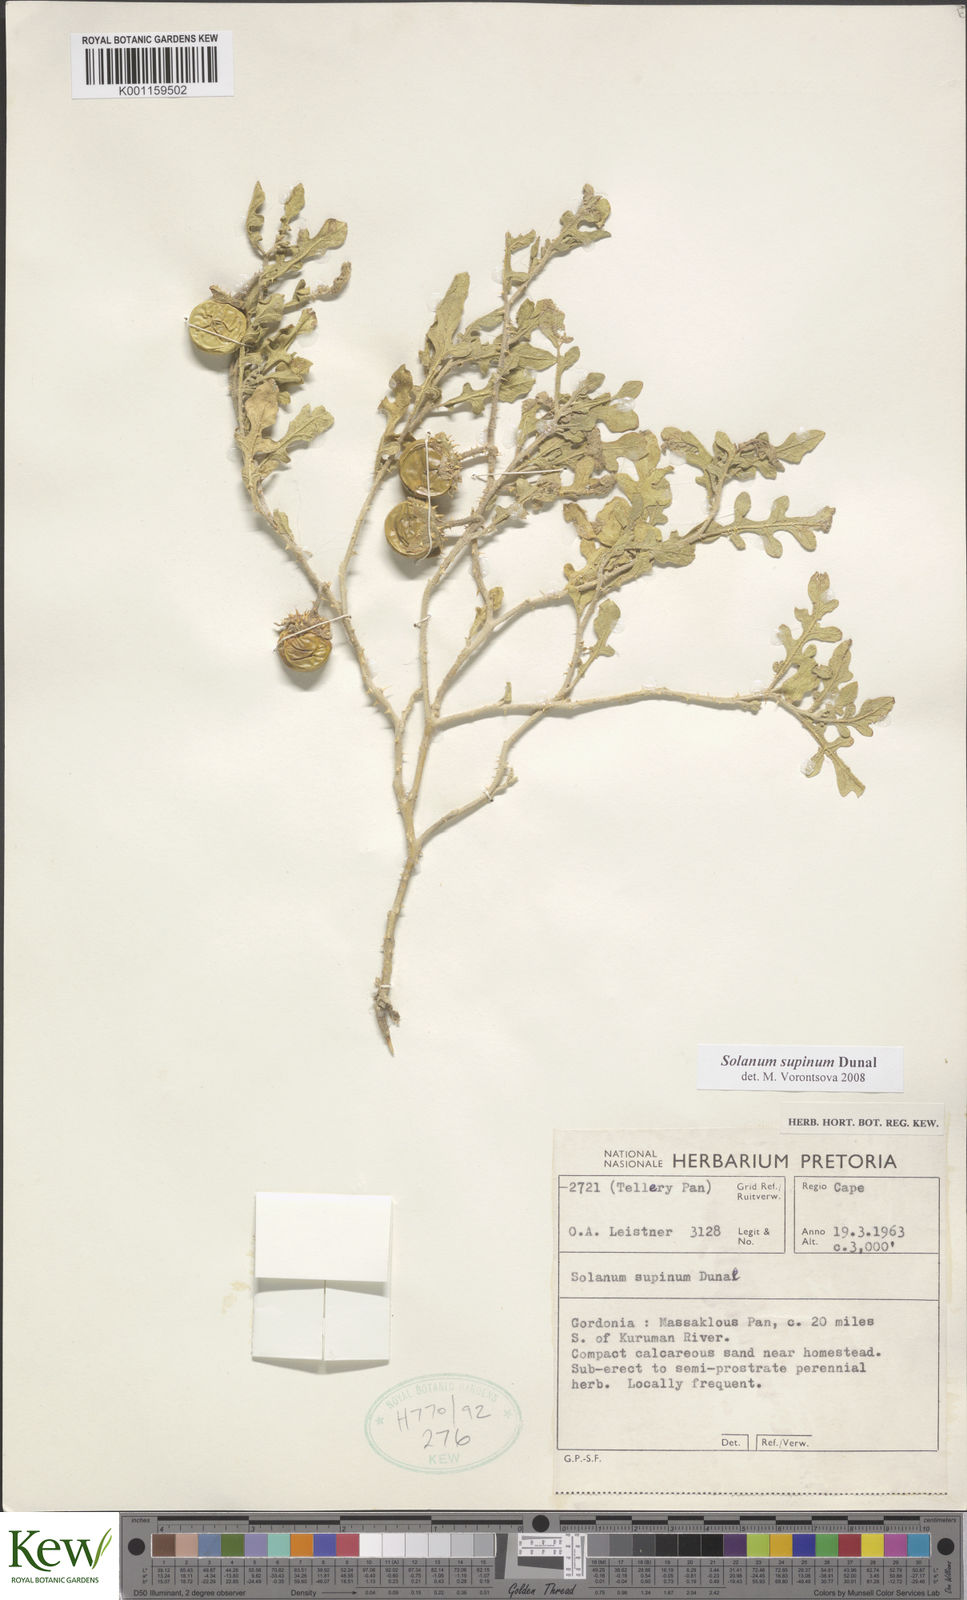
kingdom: Plantae
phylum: Tracheophyta
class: Magnoliopsida
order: Solanales
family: Solanaceae
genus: Solanum
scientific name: Solanum supinum
